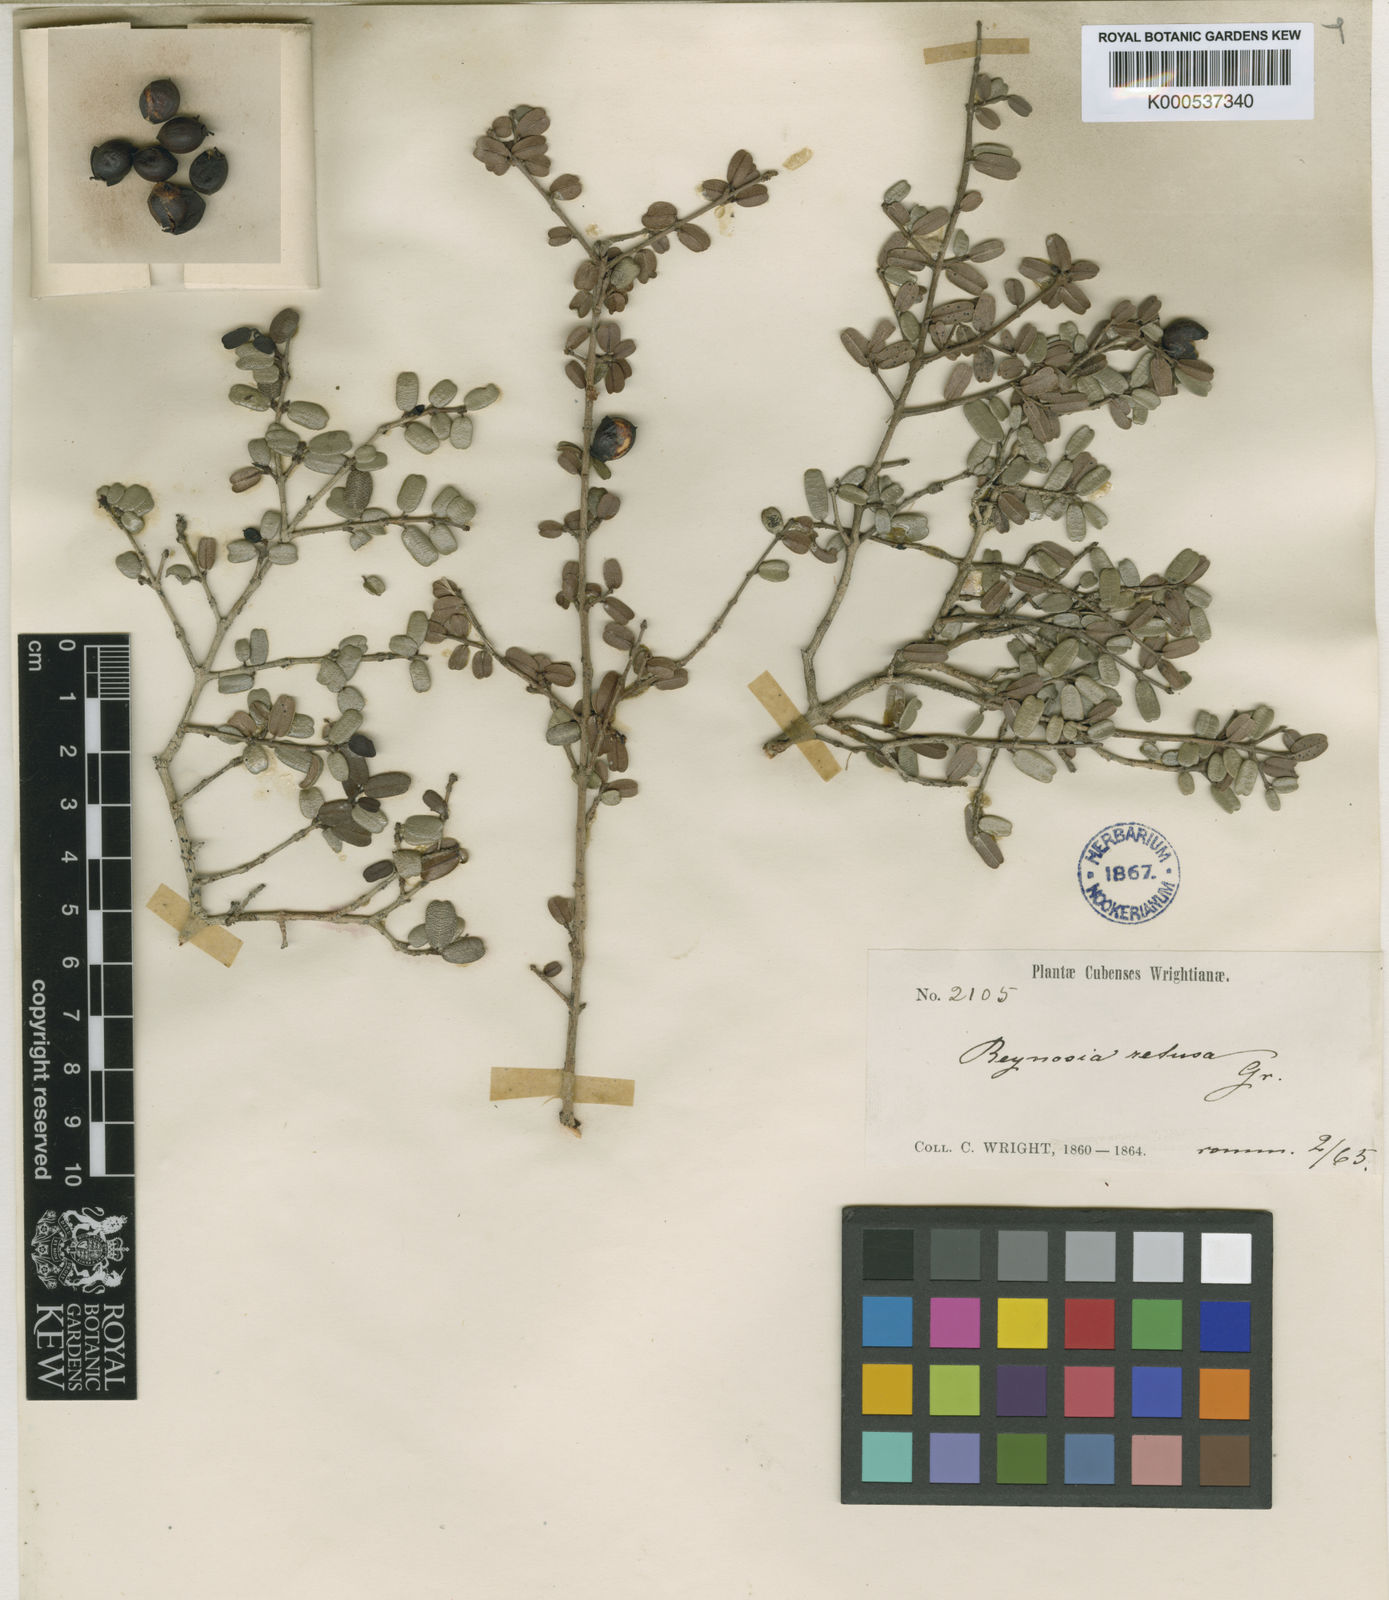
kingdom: Plantae
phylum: Tracheophyta
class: Magnoliopsida
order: Rosales
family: Rhamnaceae
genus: Reynosia
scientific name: Reynosia retusa
